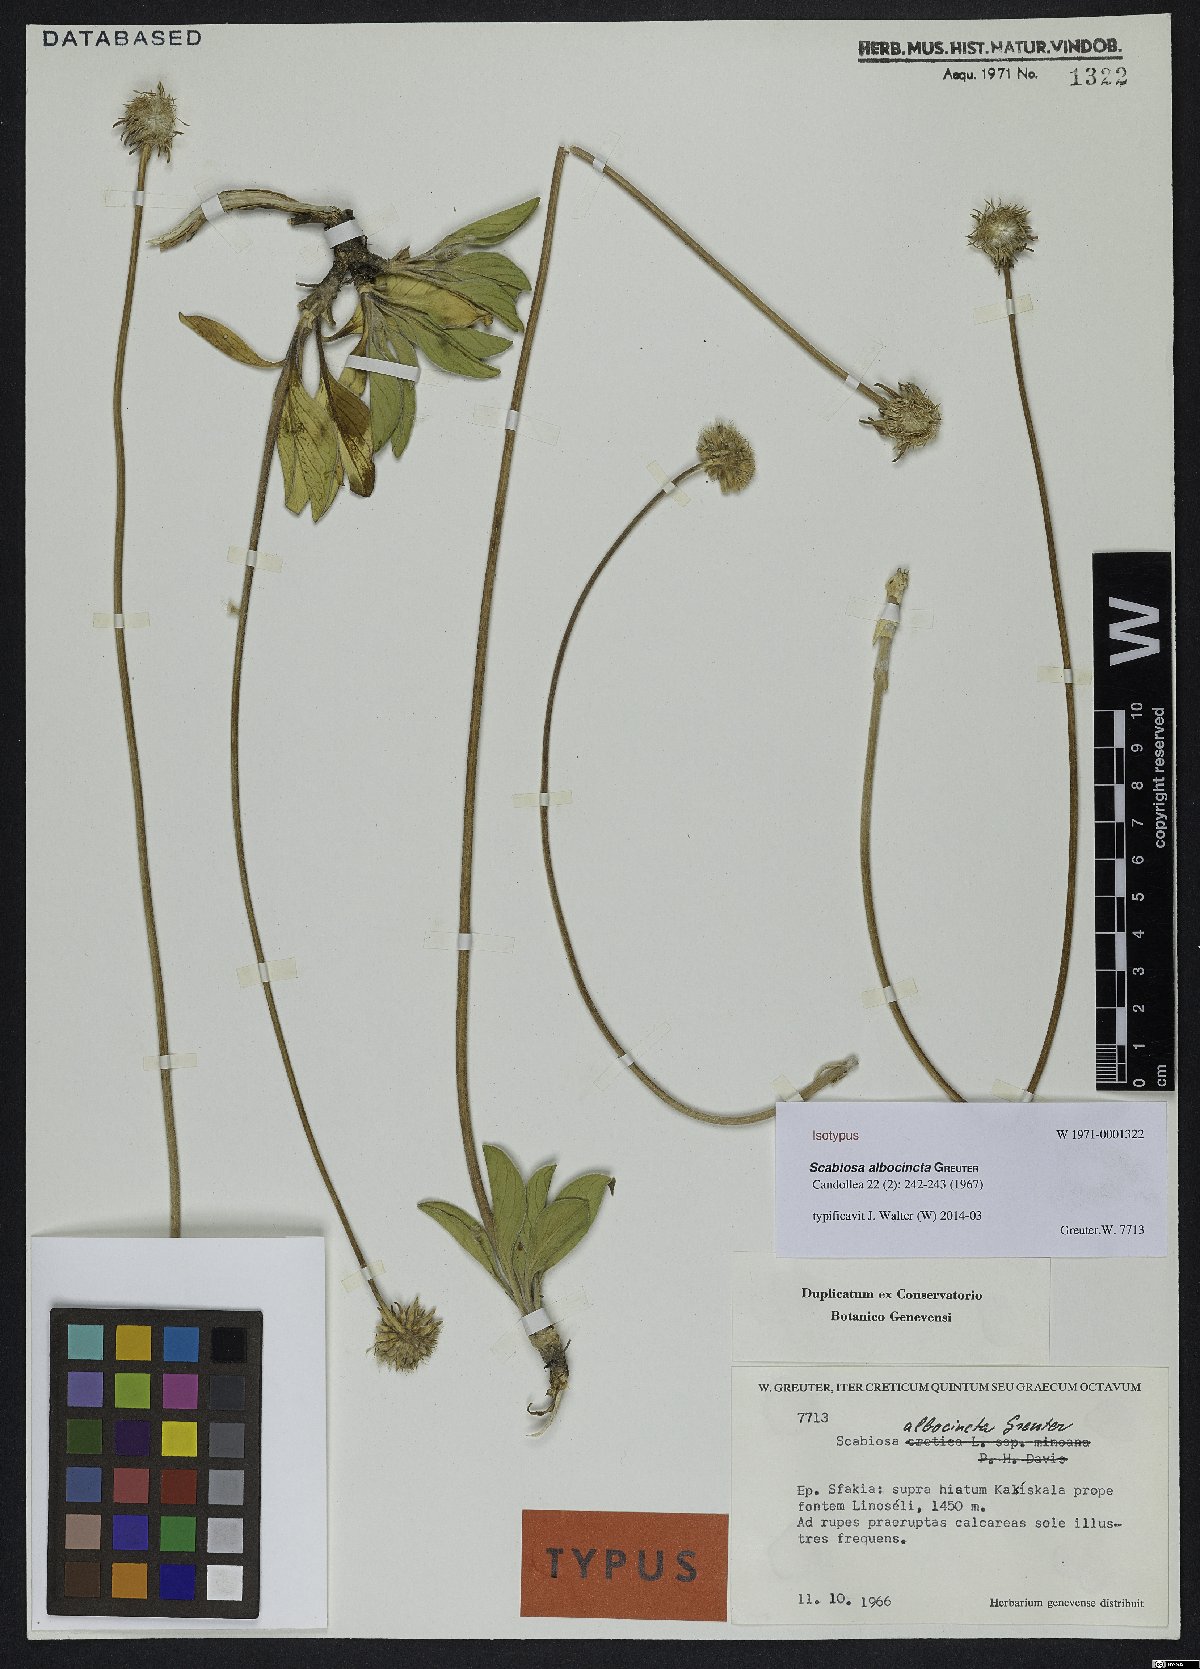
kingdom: Plantae
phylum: Tracheophyta
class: Magnoliopsida
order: Dipsacales
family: Caprifoliaceae
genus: Lomelosia
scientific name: Lomelosia albocincta
